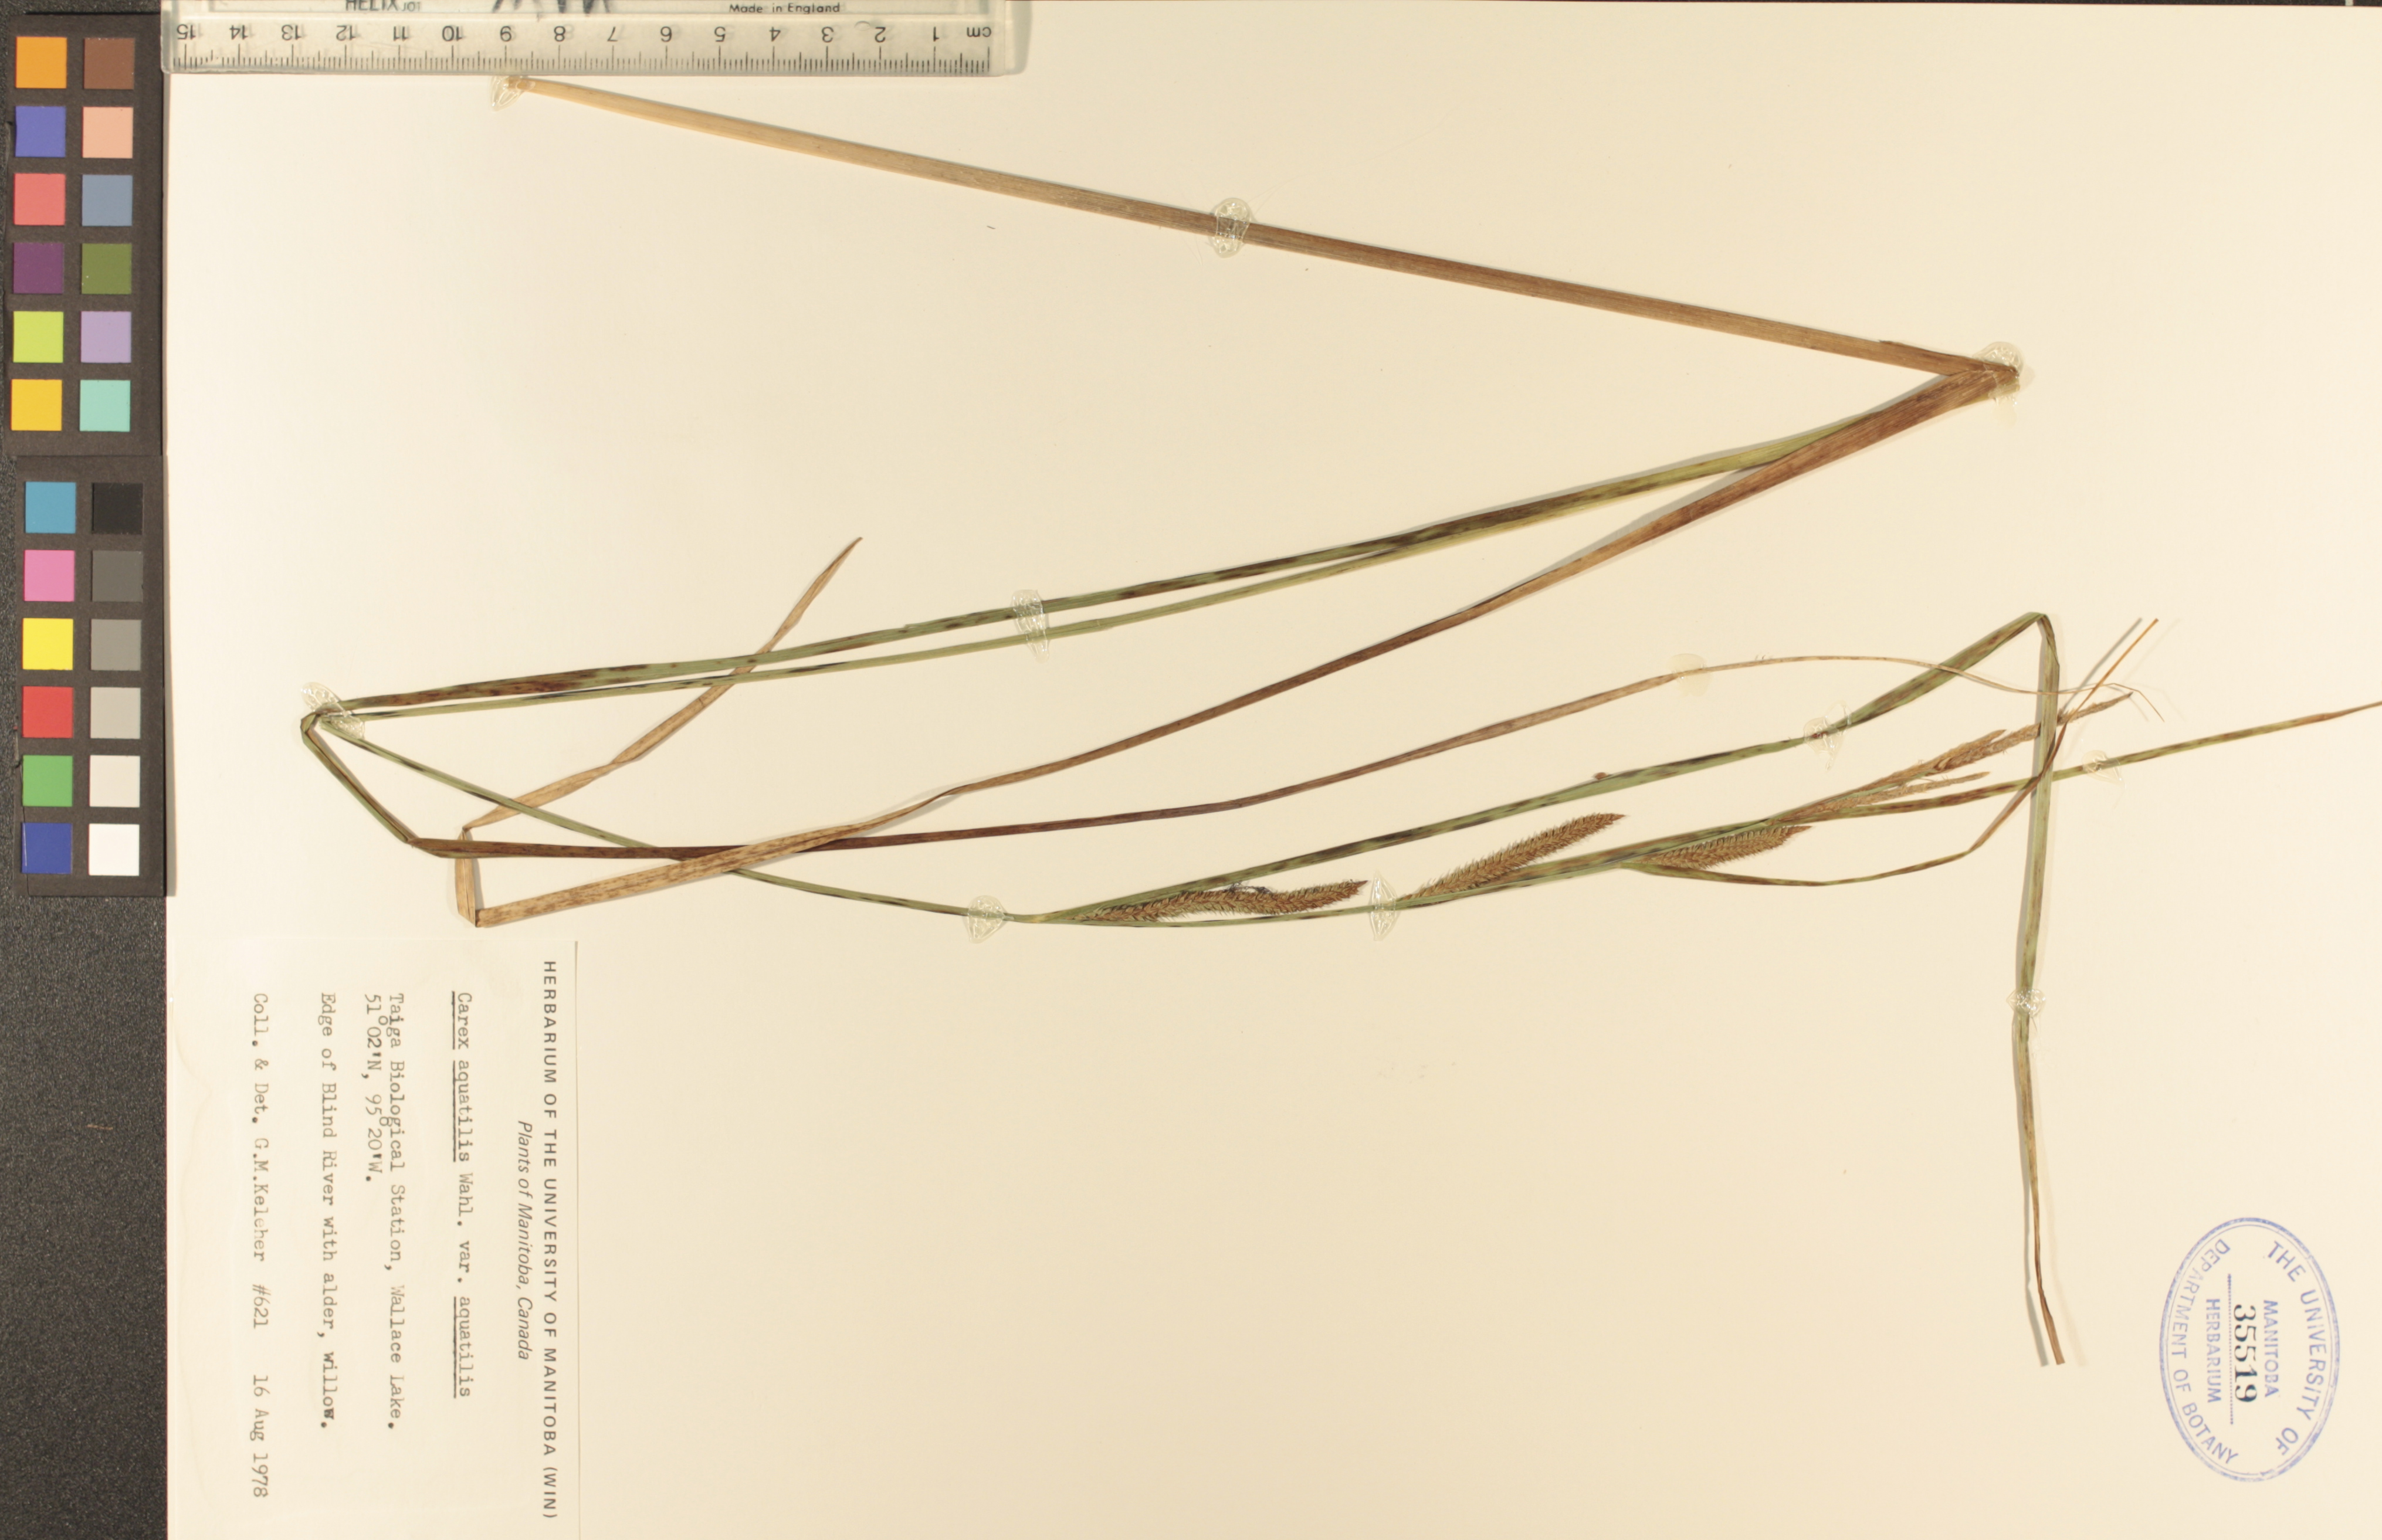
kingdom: Plantae
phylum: Tracheophyta
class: Liliopsida
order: Poales
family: Cyperaceae
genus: Carex
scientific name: Carex aquatilis
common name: Water sedge
